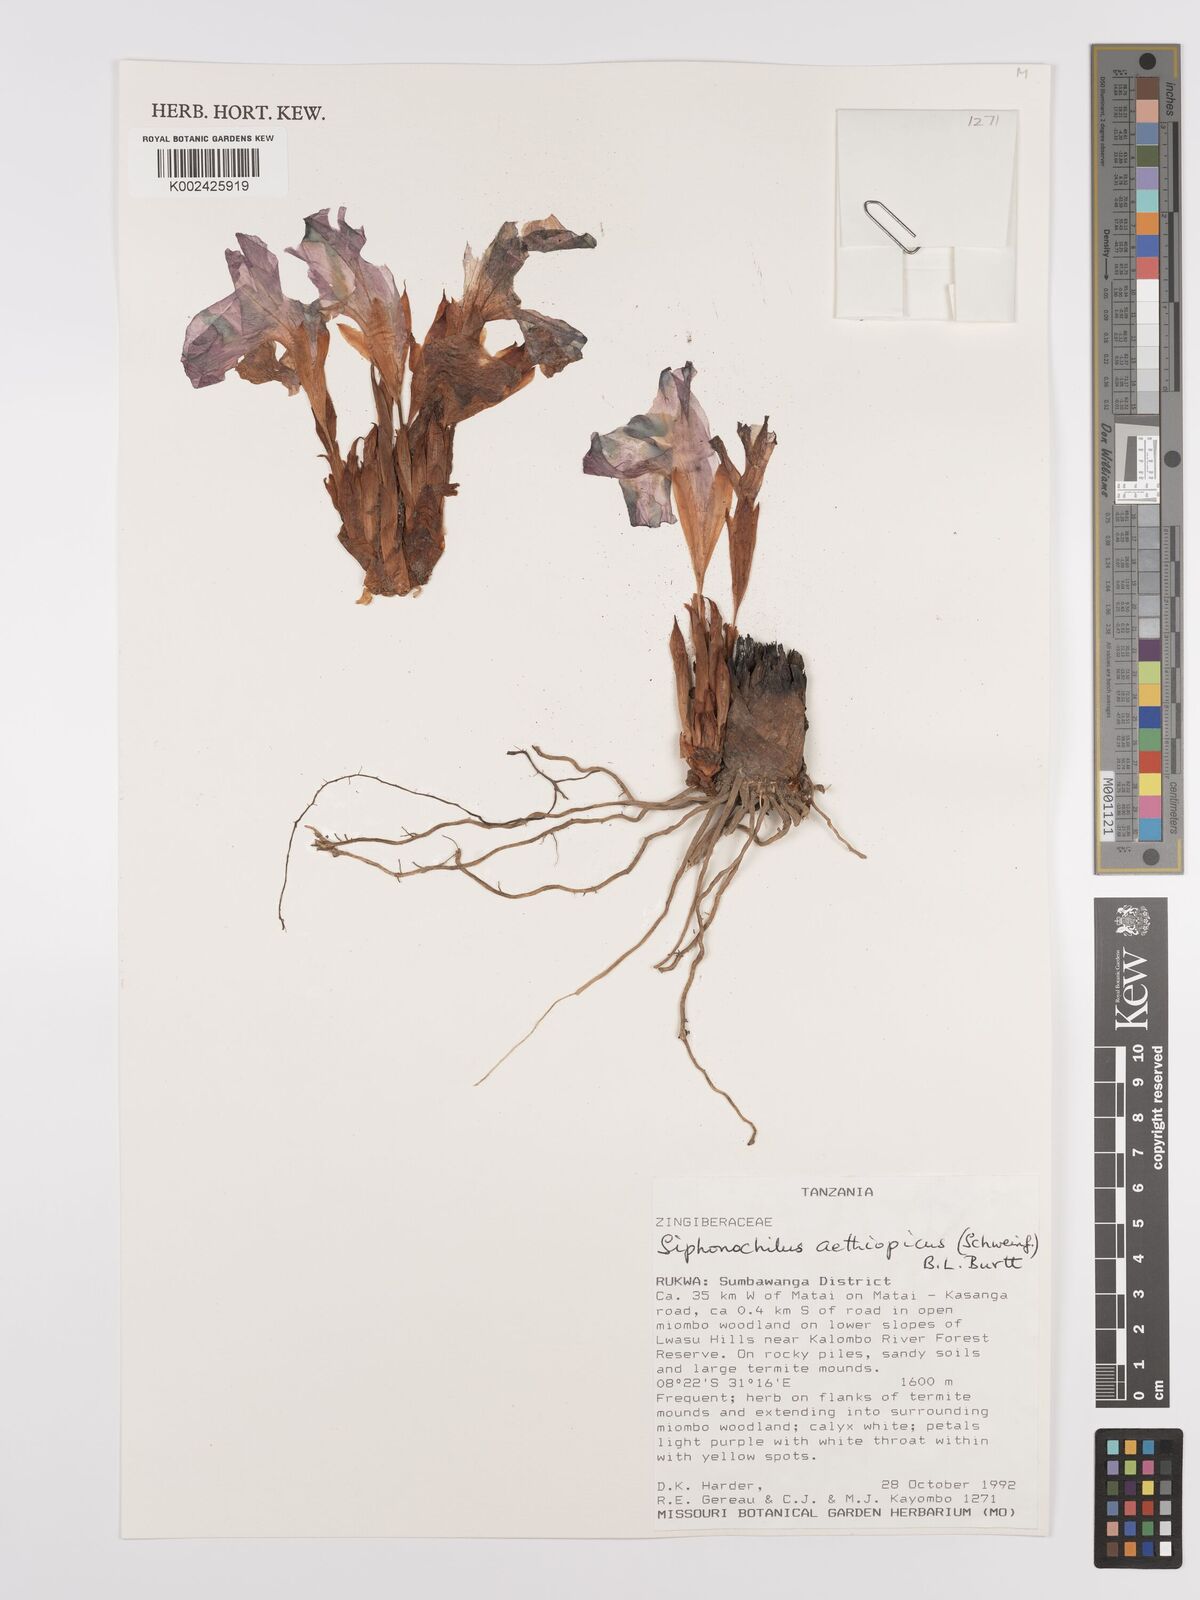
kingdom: Plantae
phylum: Tracheophyta
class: Liliopsida
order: Zingiberales
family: Zingiberaceae
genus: Siphonochilus
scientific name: Siphonochilus aethiopicus
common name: African-ginger
